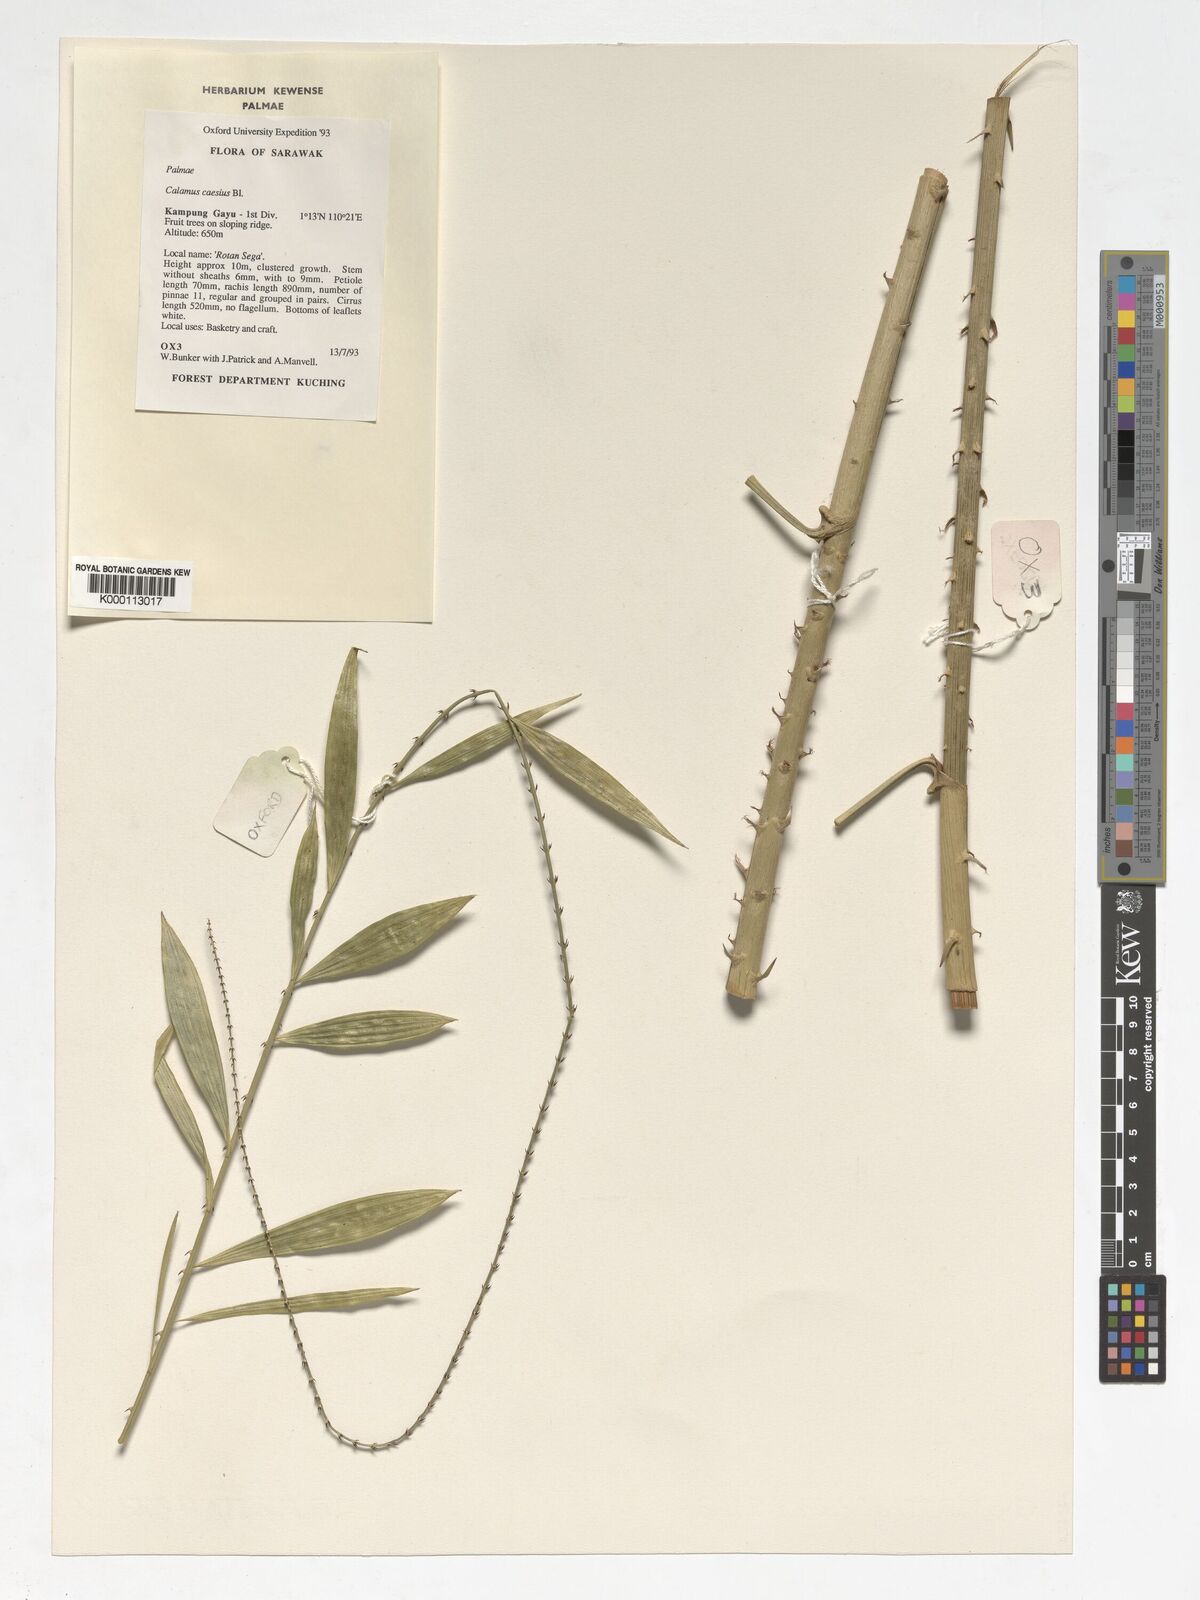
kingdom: Plantae
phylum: Tracheophyta
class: Liliopsida
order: Arecales
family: Arecaceae
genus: Calamus
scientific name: Calamus caesius
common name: Rattan palm
